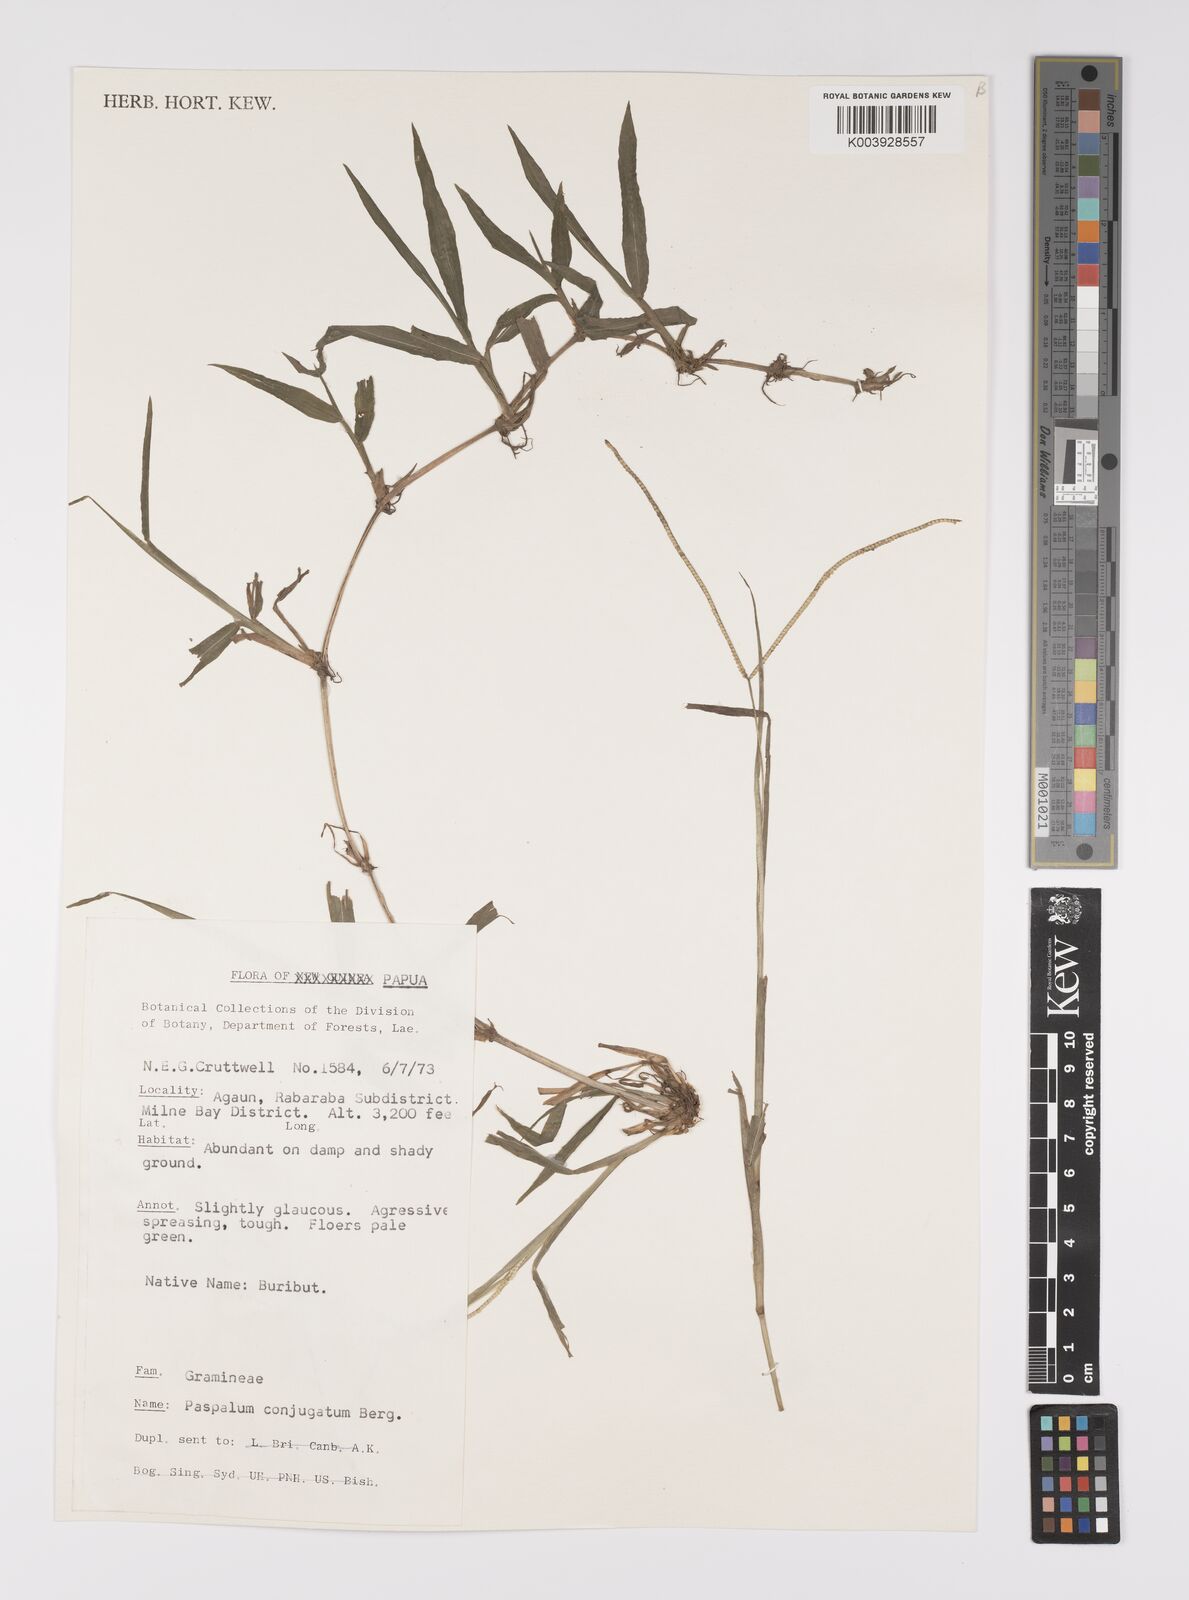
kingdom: Plantae
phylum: Tracheophyta
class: Liliopsida
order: Poales
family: Poaceae
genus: Paspalum
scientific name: Paspalum conjugatum
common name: Hilograss
